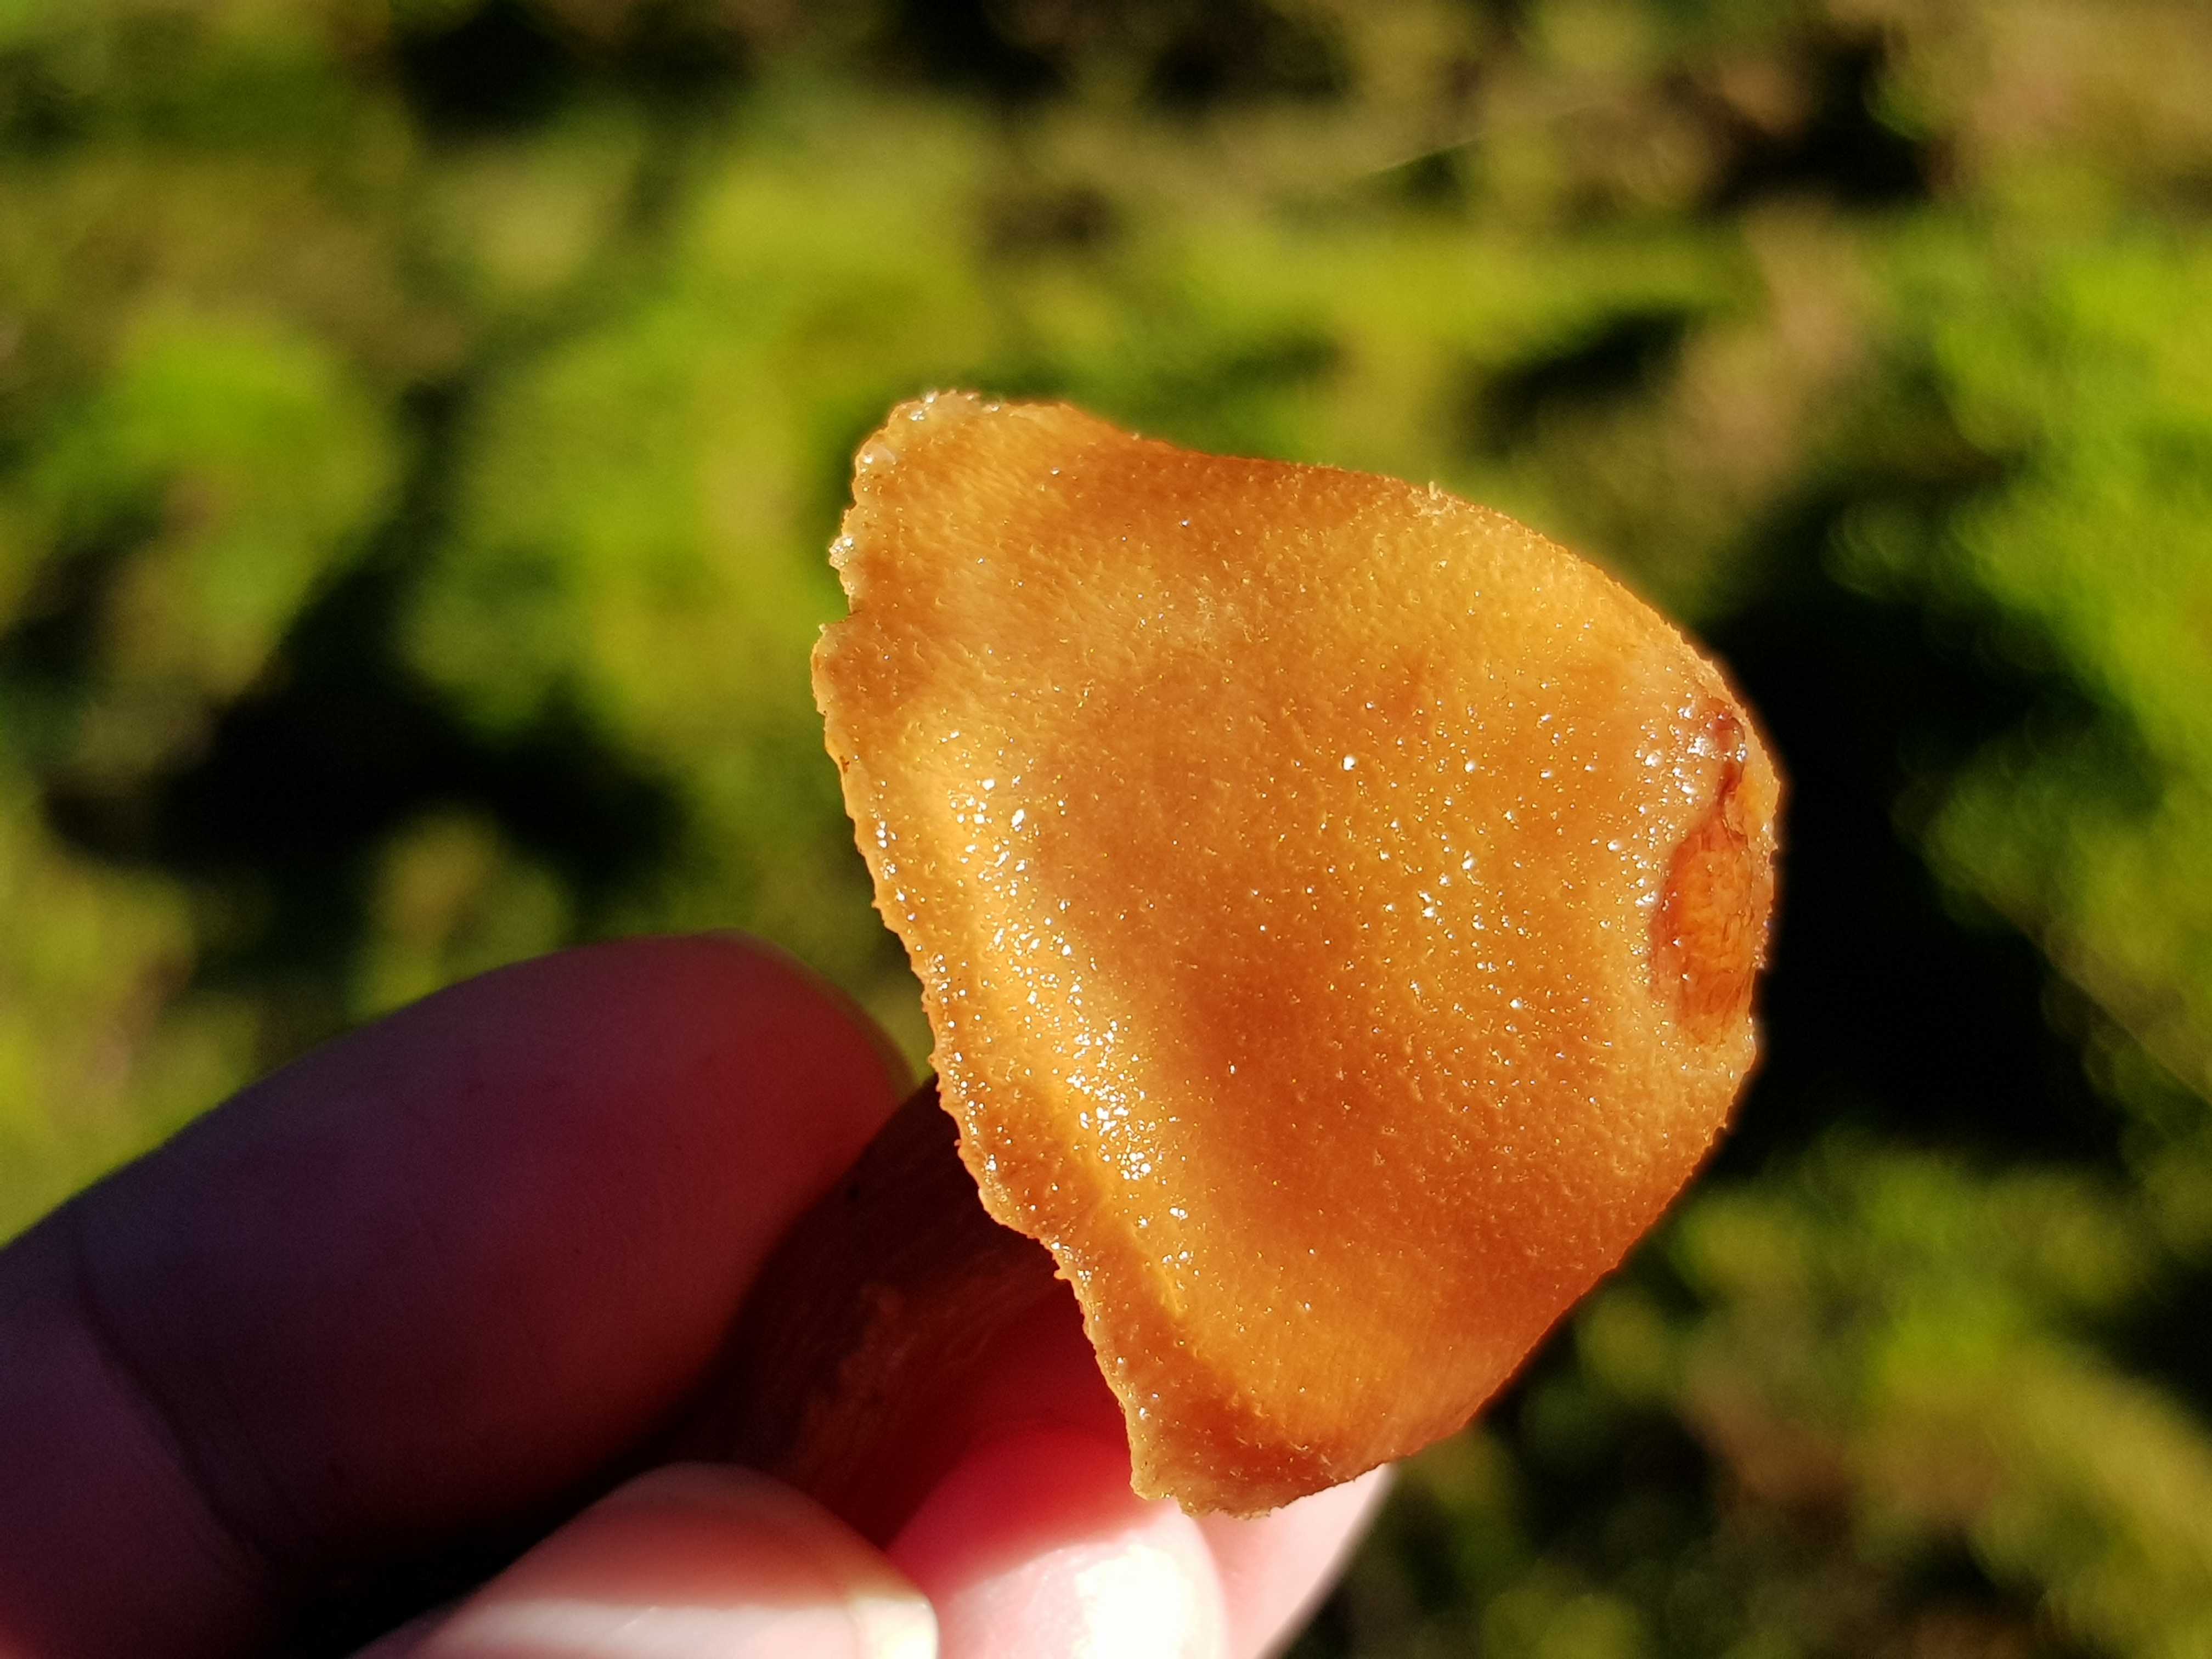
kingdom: Fungi
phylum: Basidiomycota
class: Agaricomycetes
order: Agaricales
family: Hydnangiaceae
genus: Laccaria
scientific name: Laccaria laccata
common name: rød ametysthat
